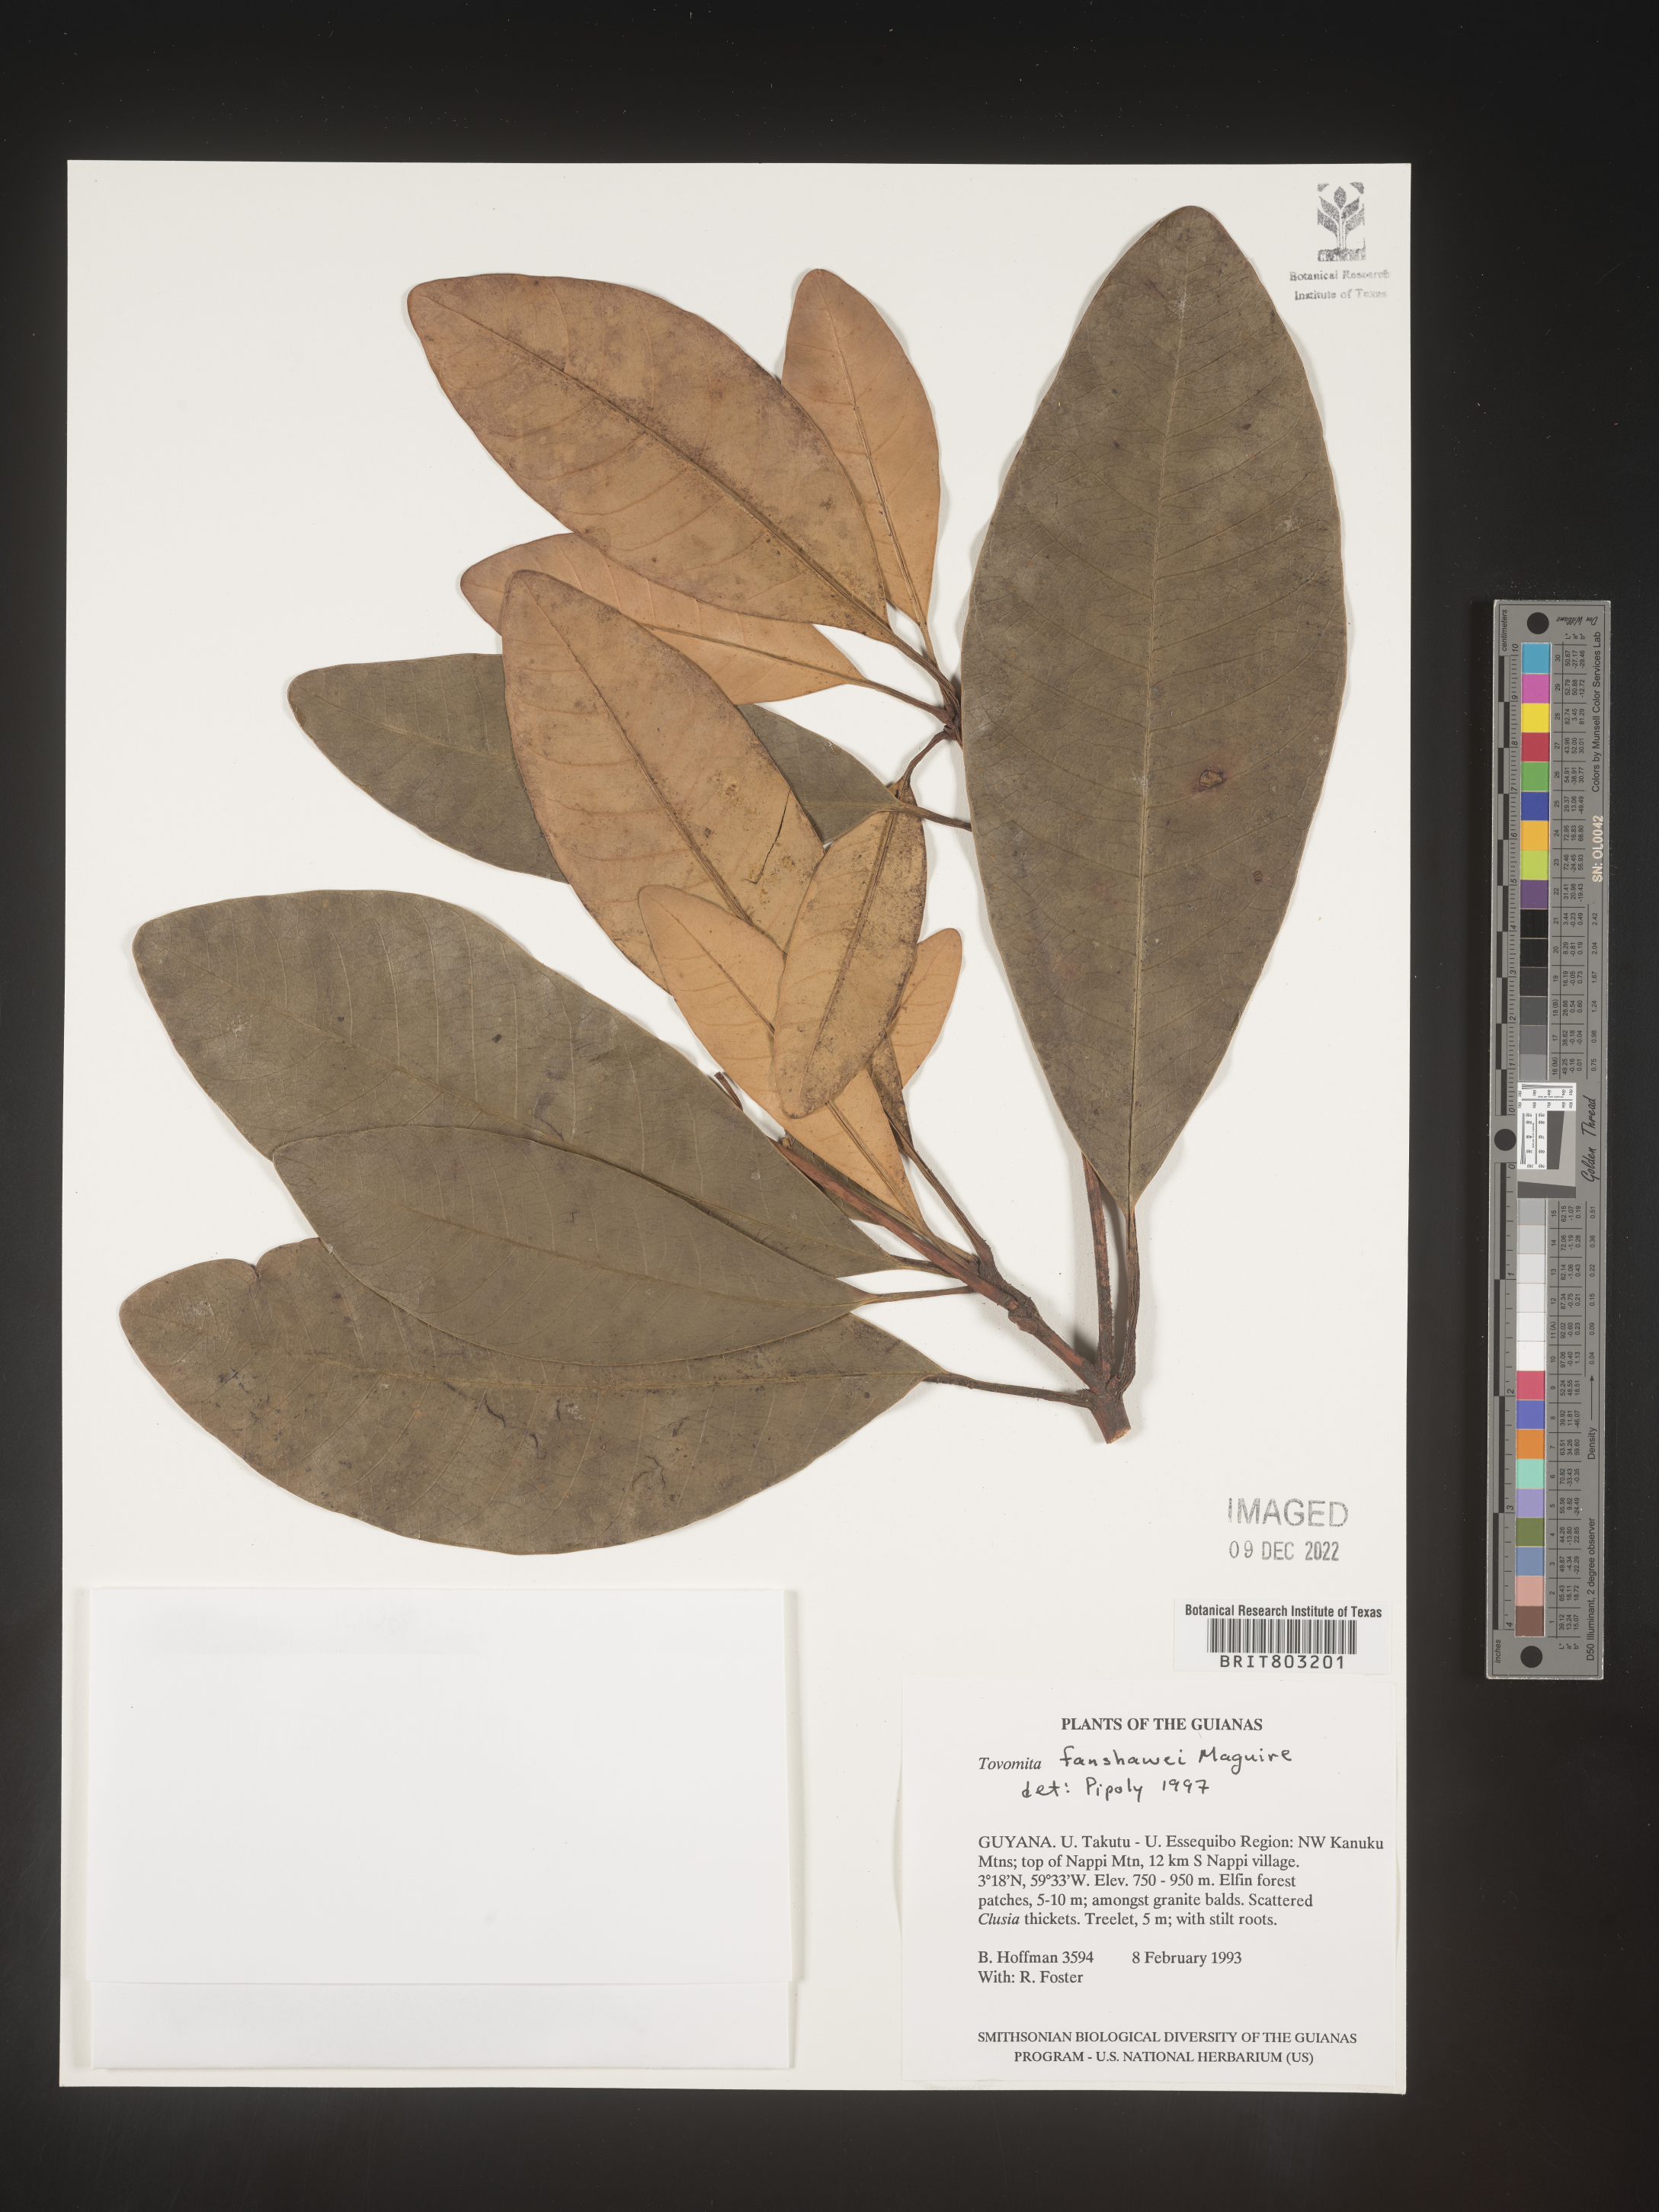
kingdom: Plantae
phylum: Tracheophyta
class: Magnoliopsida
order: Malpighiales
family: Clusiaceae
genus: Tovomita
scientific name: Tovomita
